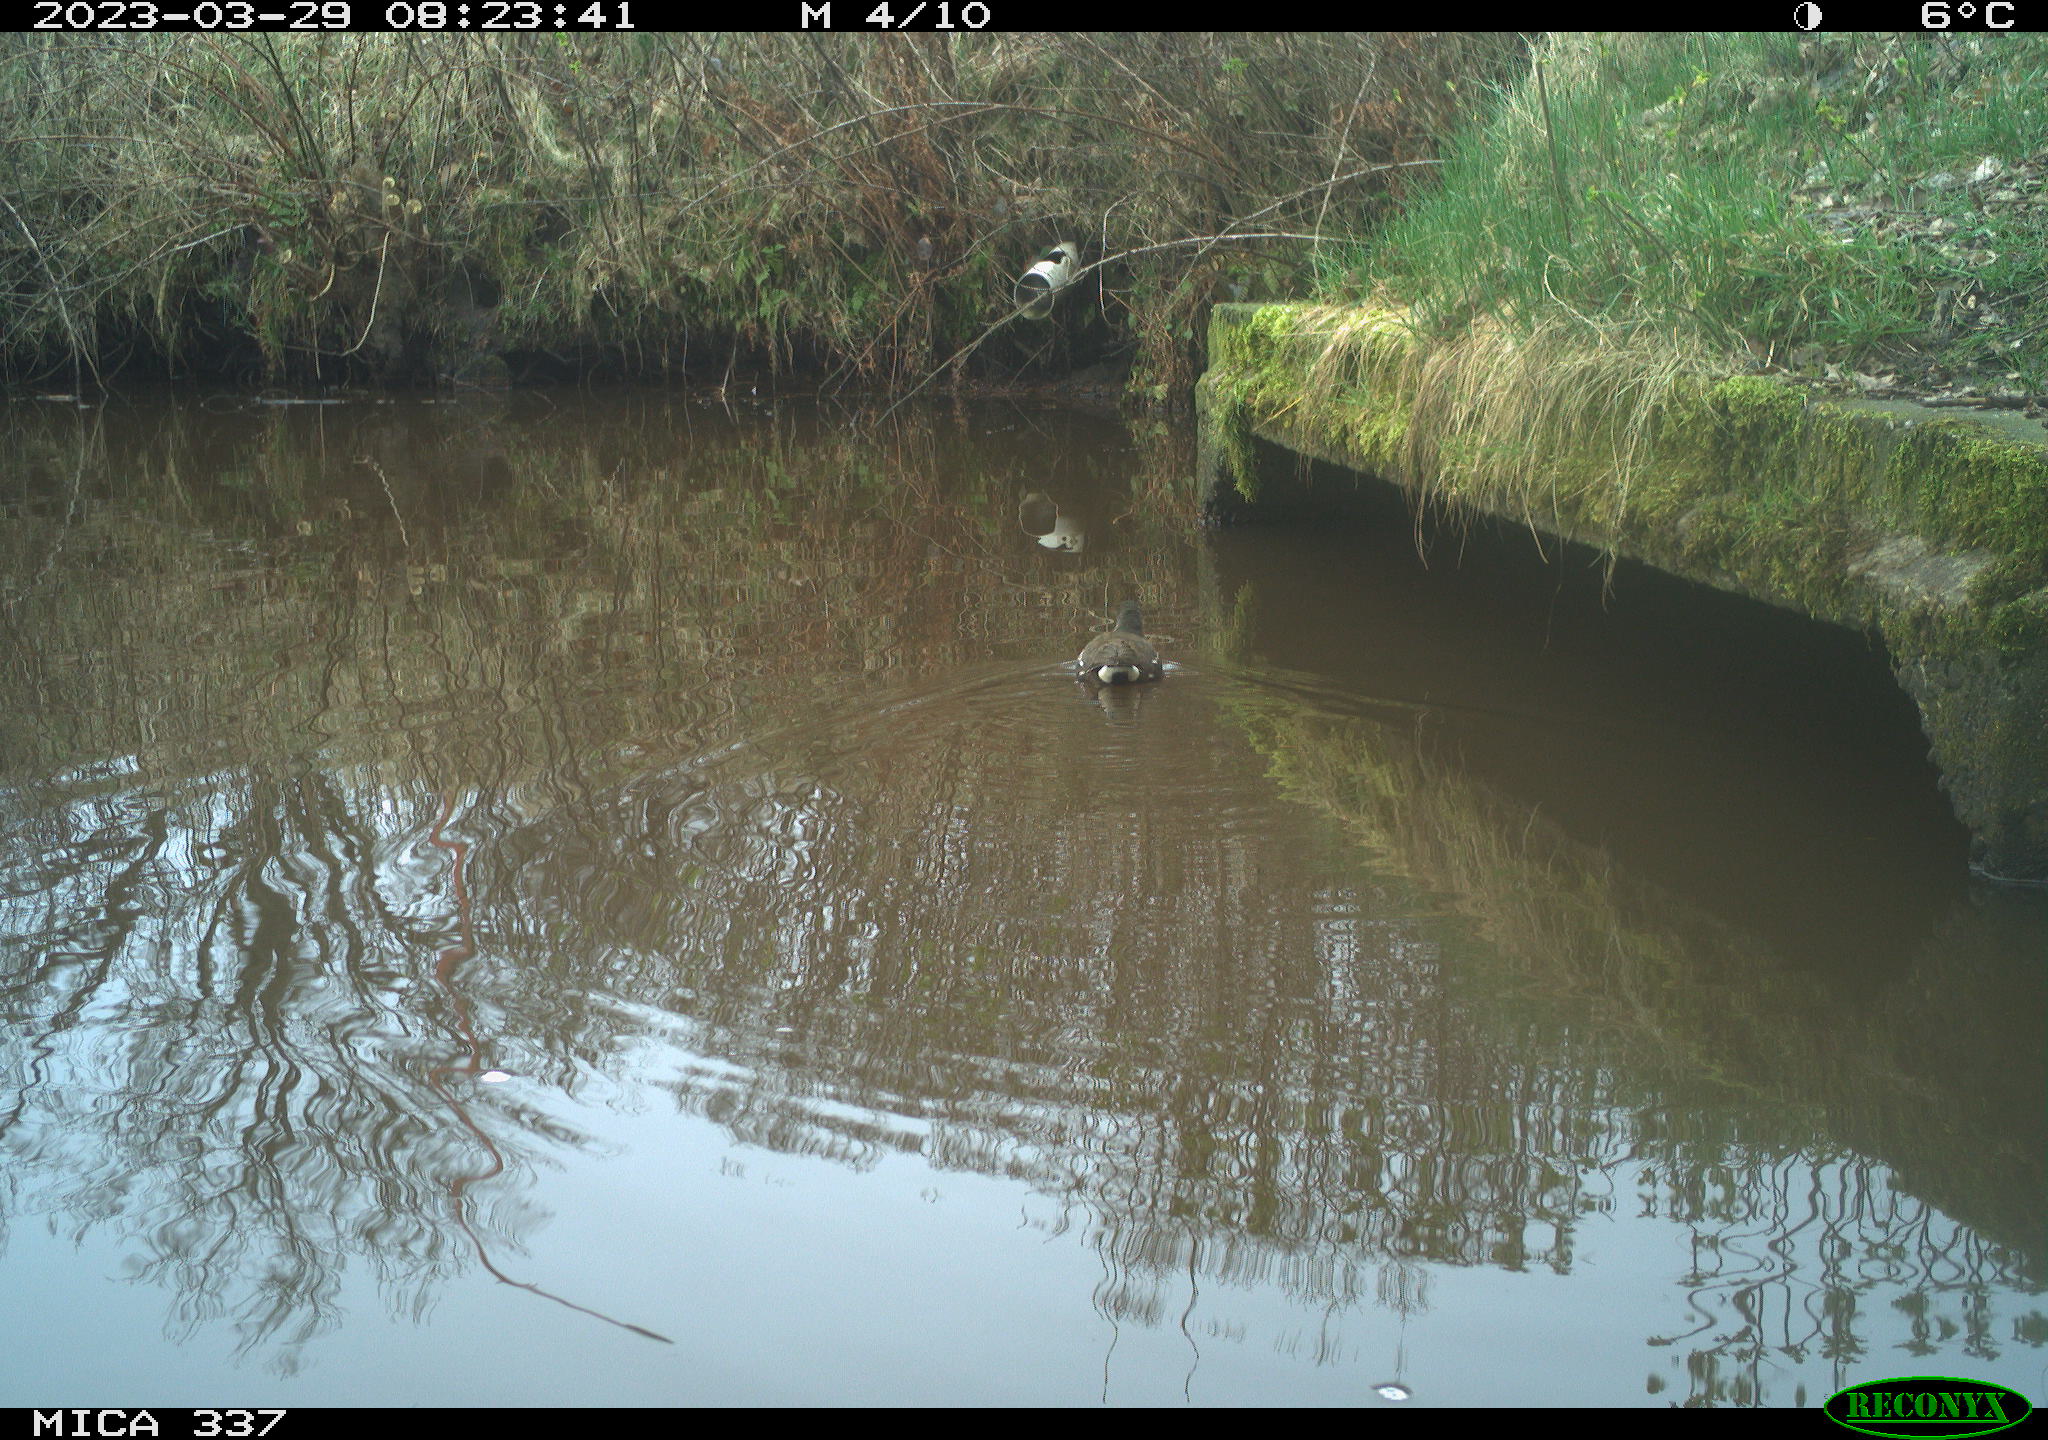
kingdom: Animalia
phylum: Chordata
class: Aves
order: Gruiformes
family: Rallidae
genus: Gallinula
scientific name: Gallinula chloropus
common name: Common moorhen
